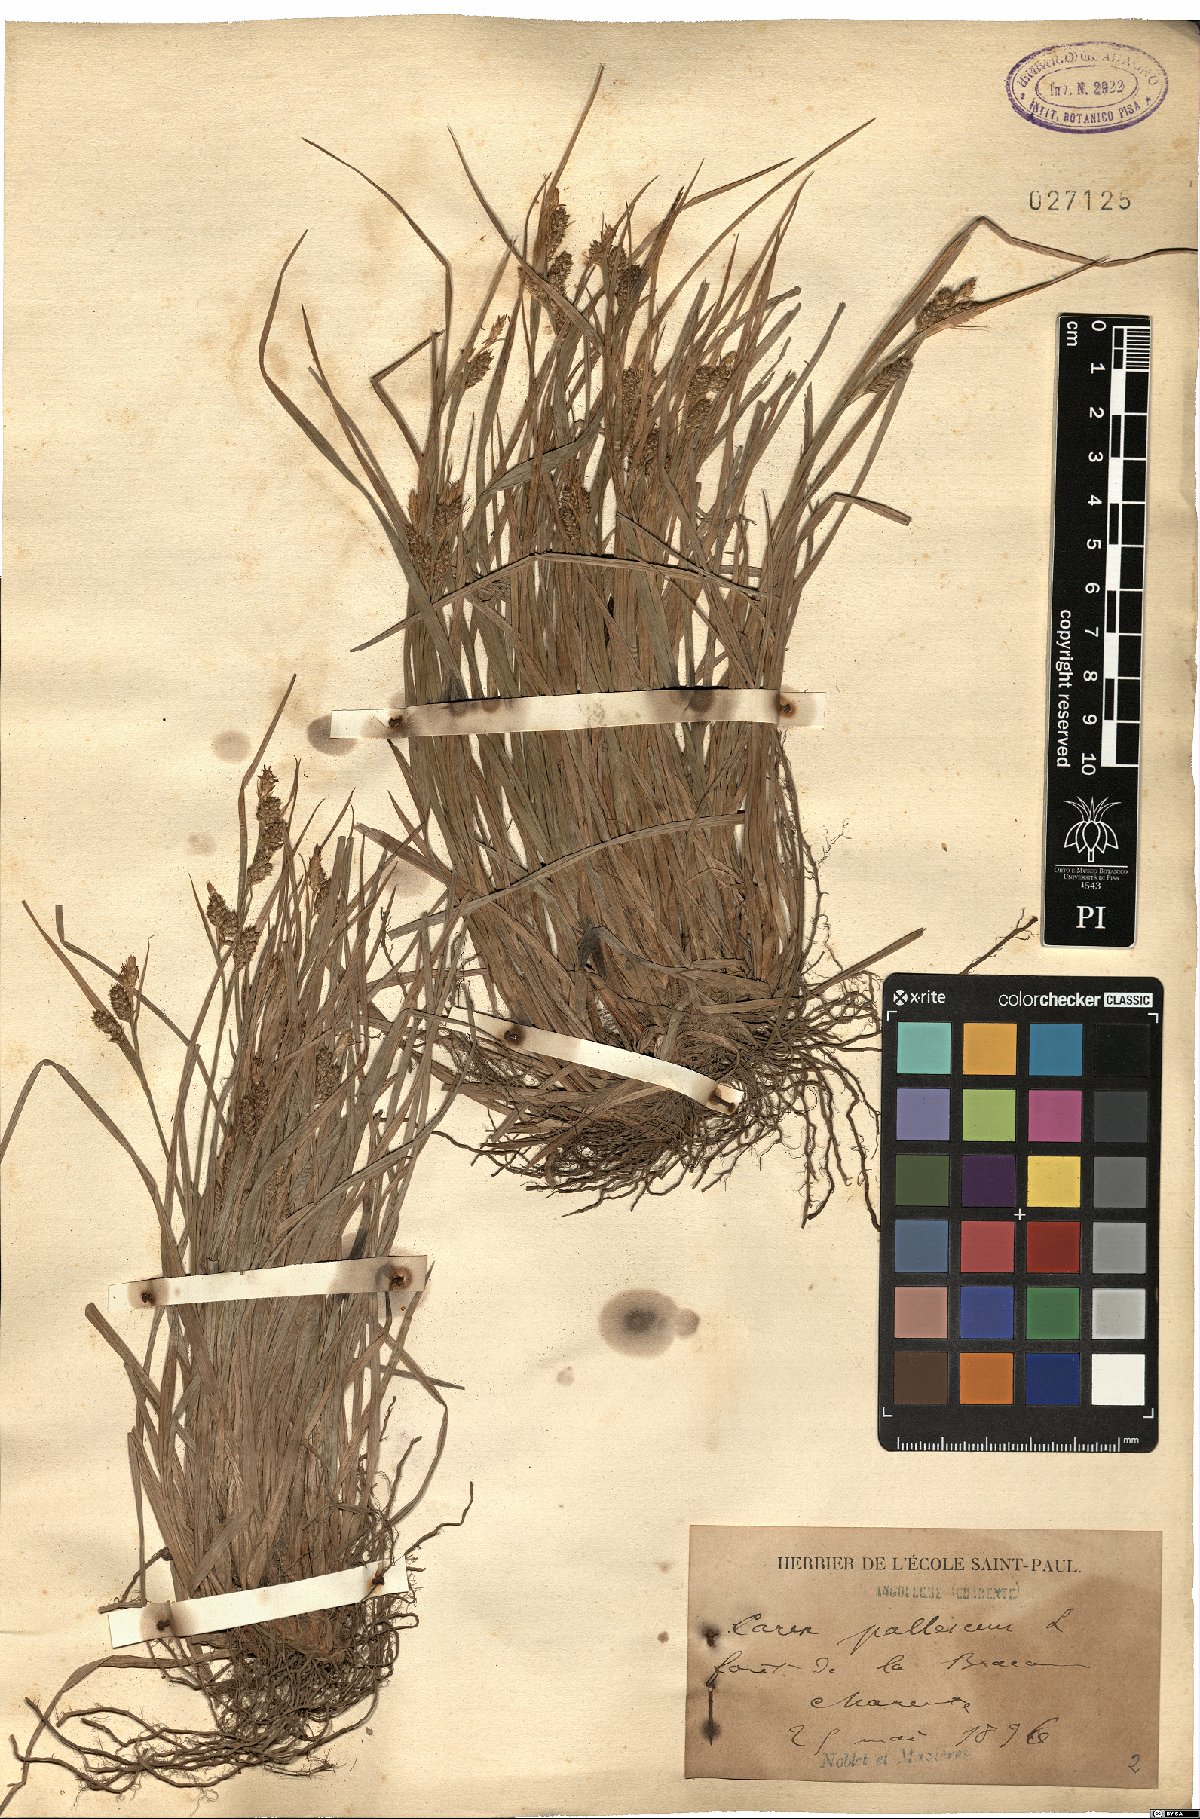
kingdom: Plantae
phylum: Tracheophyta
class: Liliopsida
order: Poales
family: Cyperaceae
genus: Carex
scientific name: Carex pallescens
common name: Pale sedge
